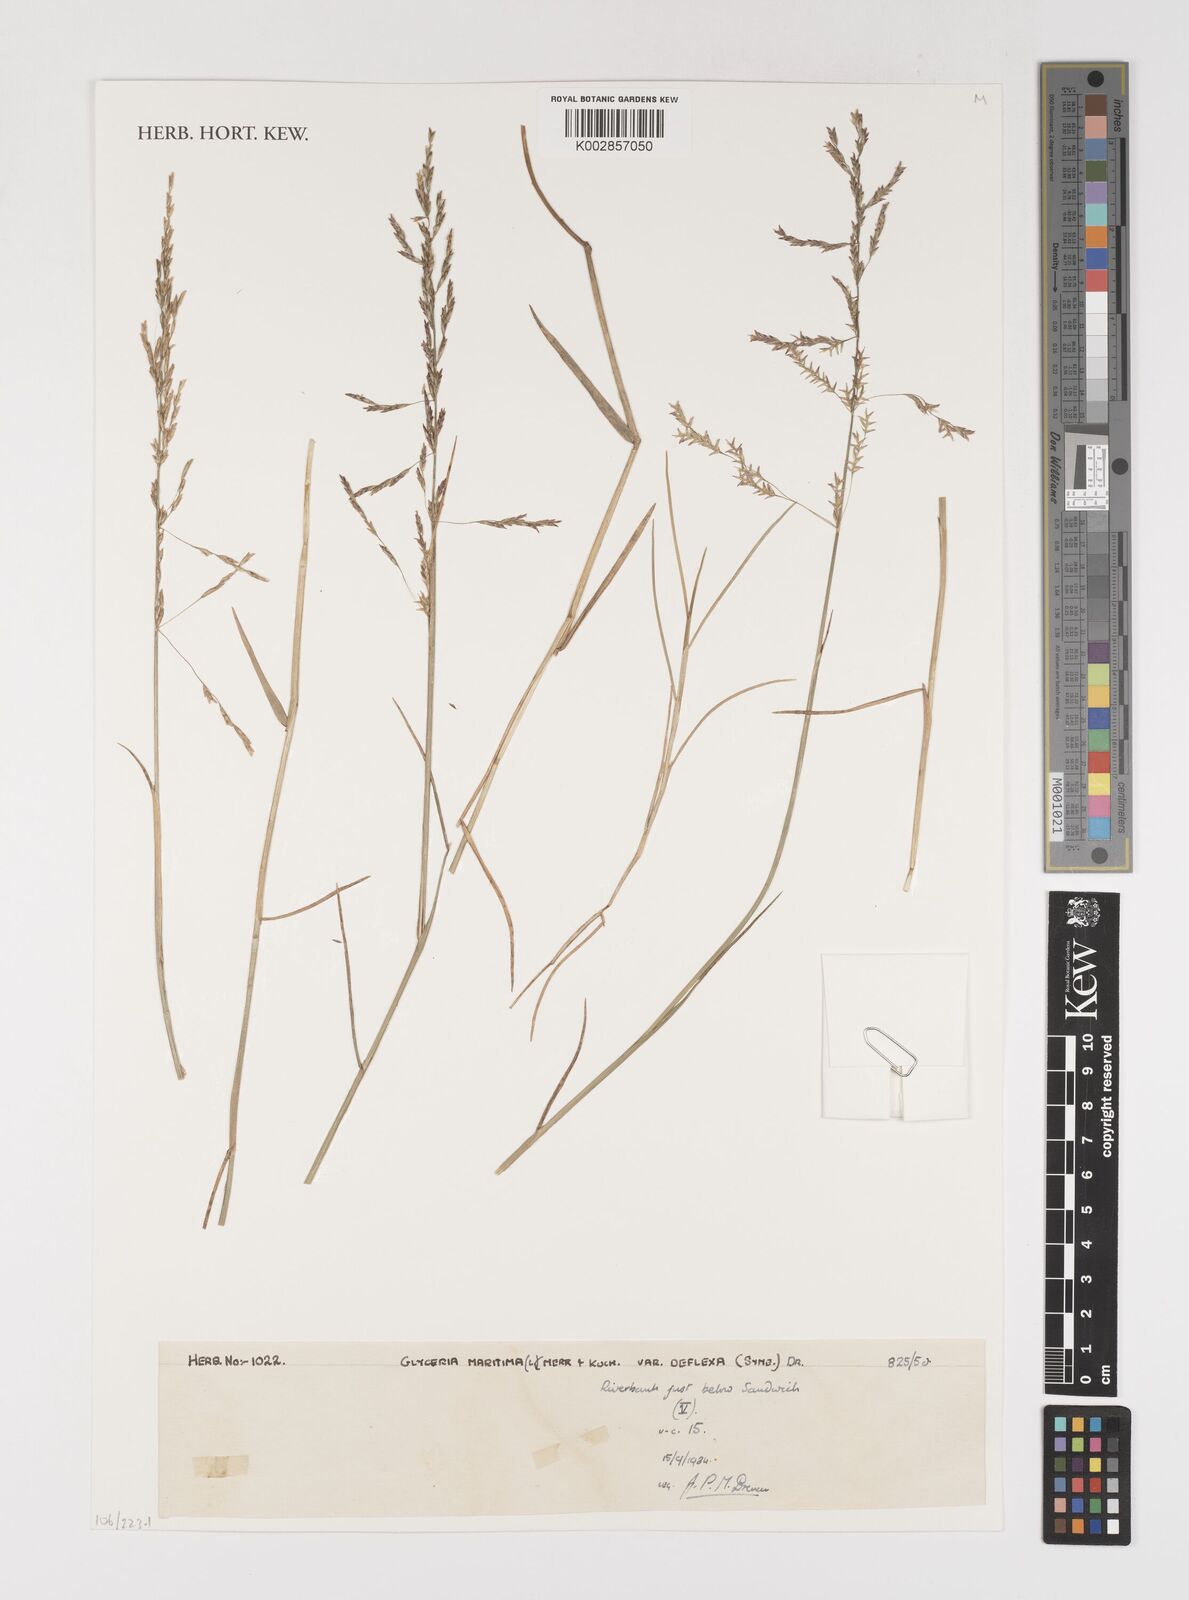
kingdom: Plantae
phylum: Tracheophyta
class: Liliopsida
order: Poales
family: Poaceae
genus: Puccinellia
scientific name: Puccinellia maritima
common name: Common saltmarsh grass
